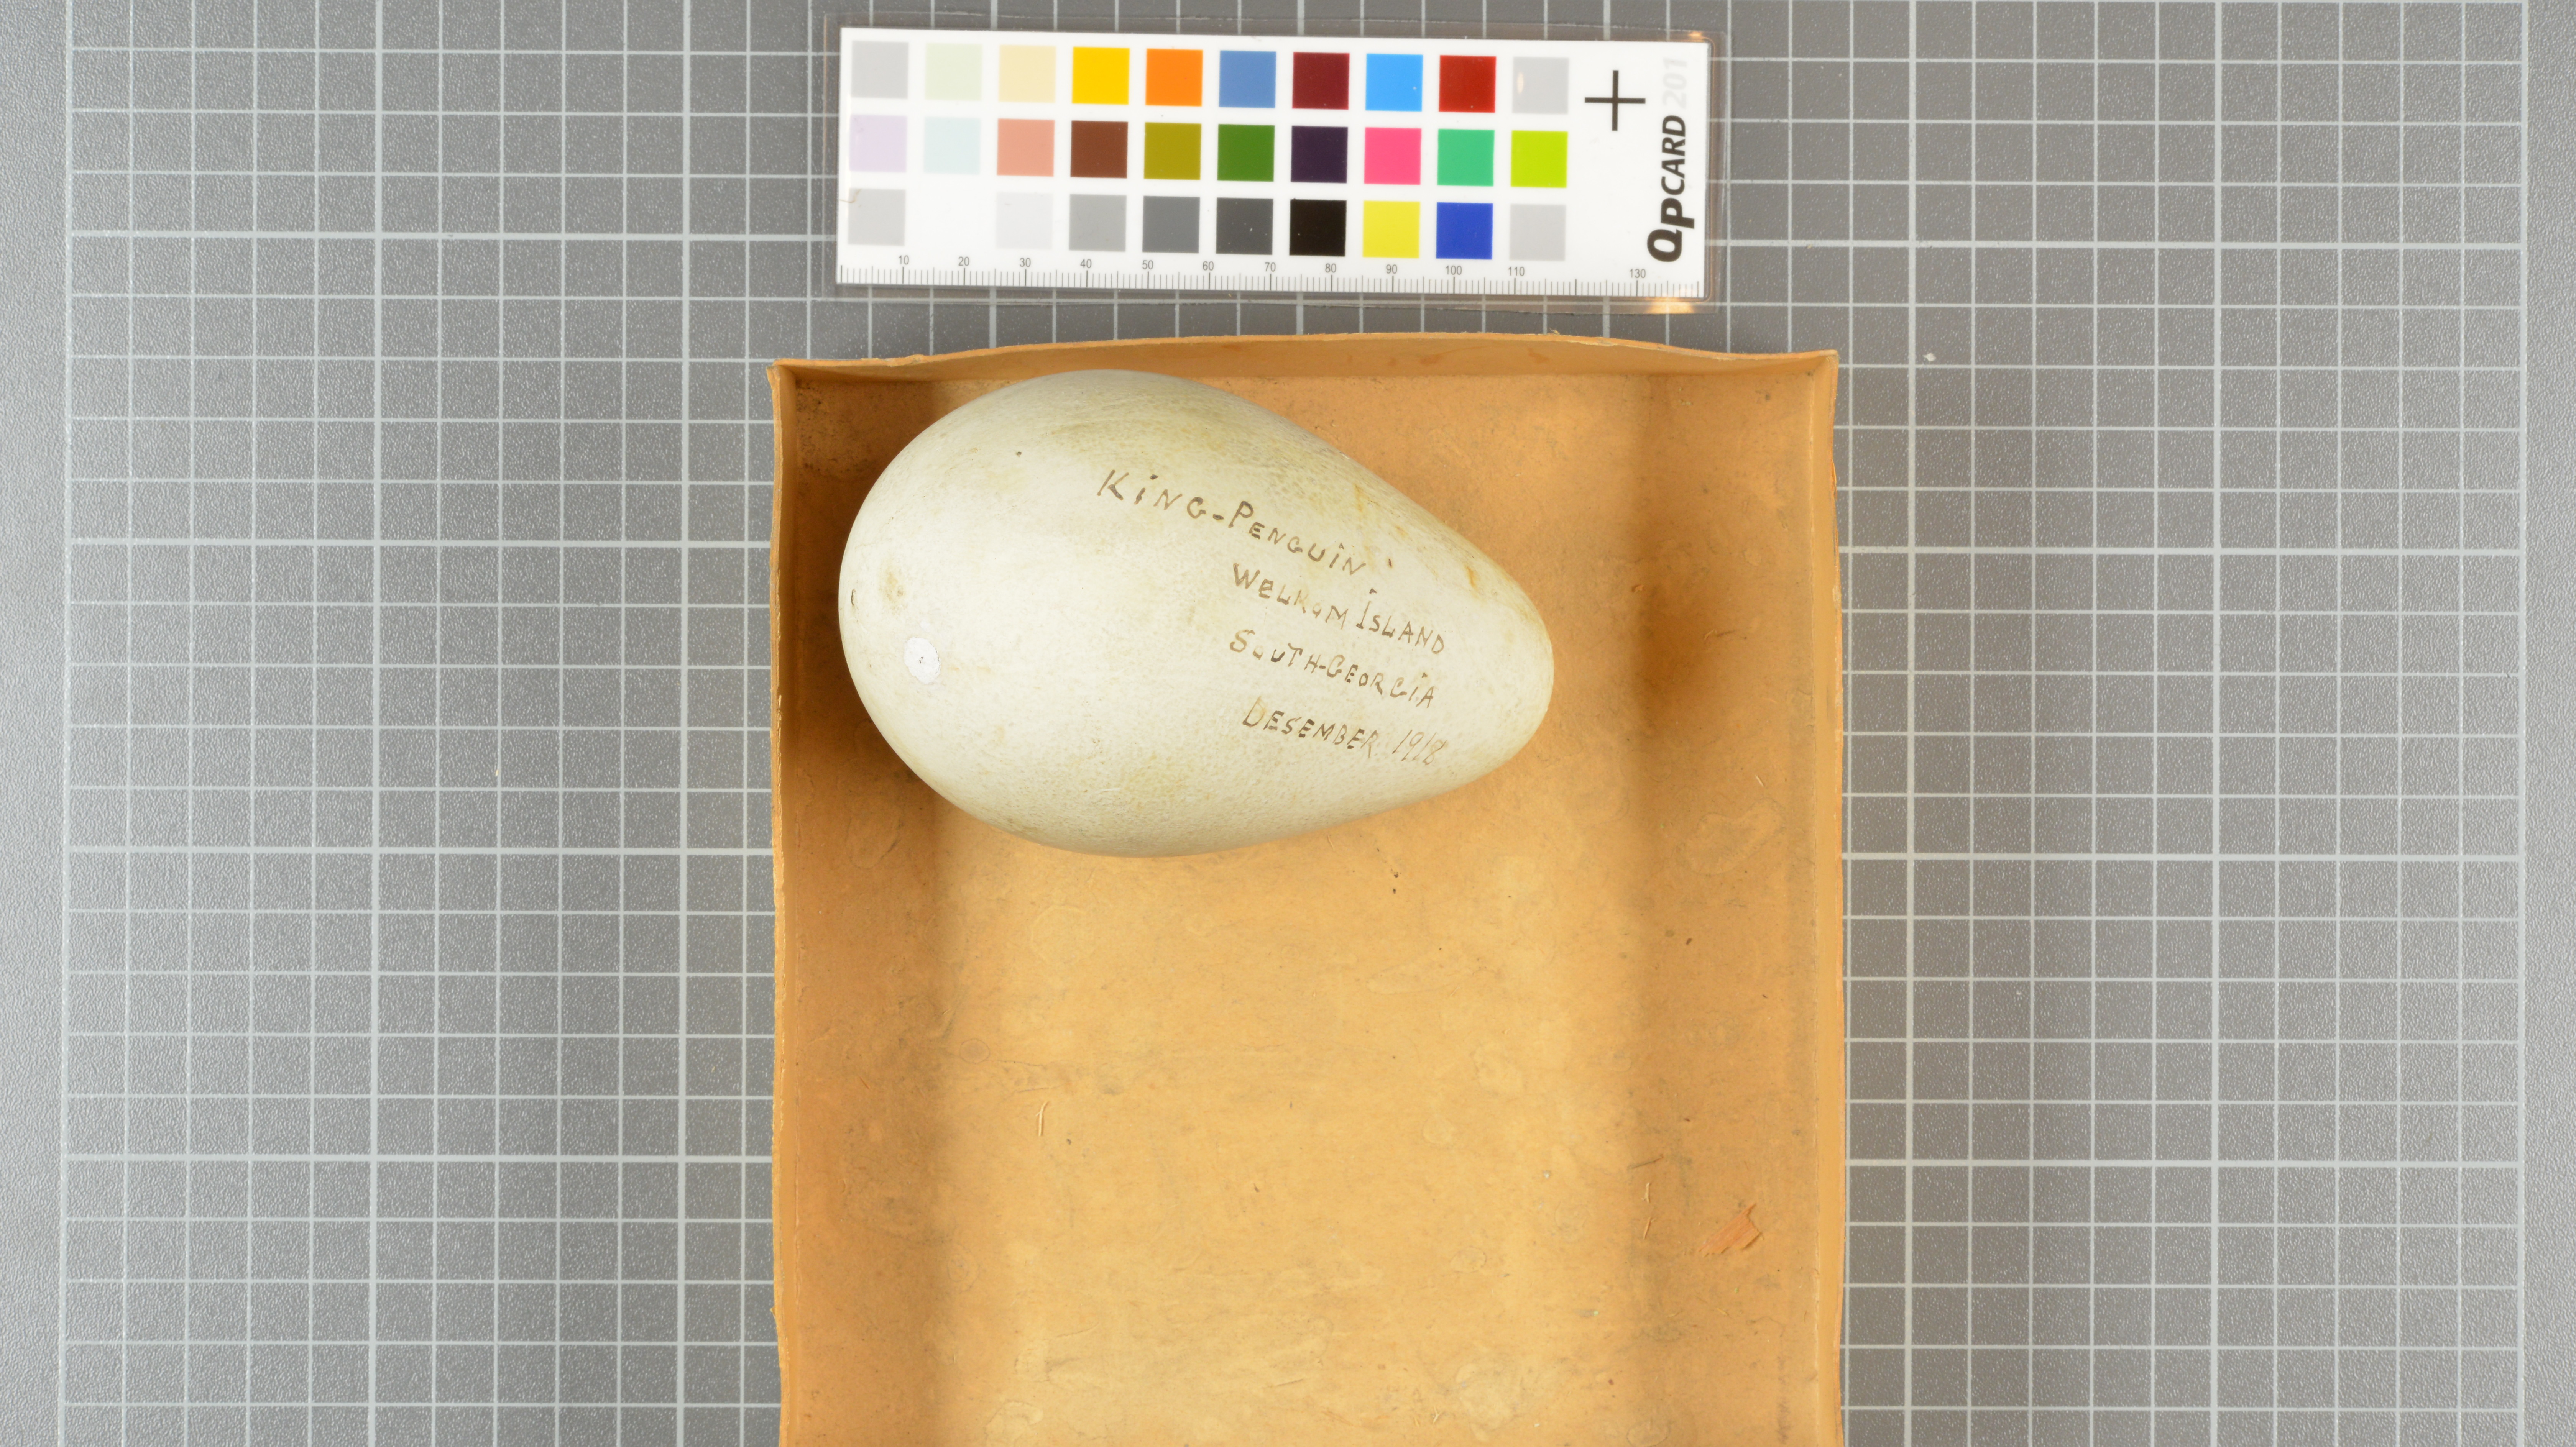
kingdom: Animalia
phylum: Chordata
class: Aves
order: Sphenisciformes
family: Spheniscidae
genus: Aptenodytes
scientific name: Aptenodytes patagonicus
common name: King penguin
